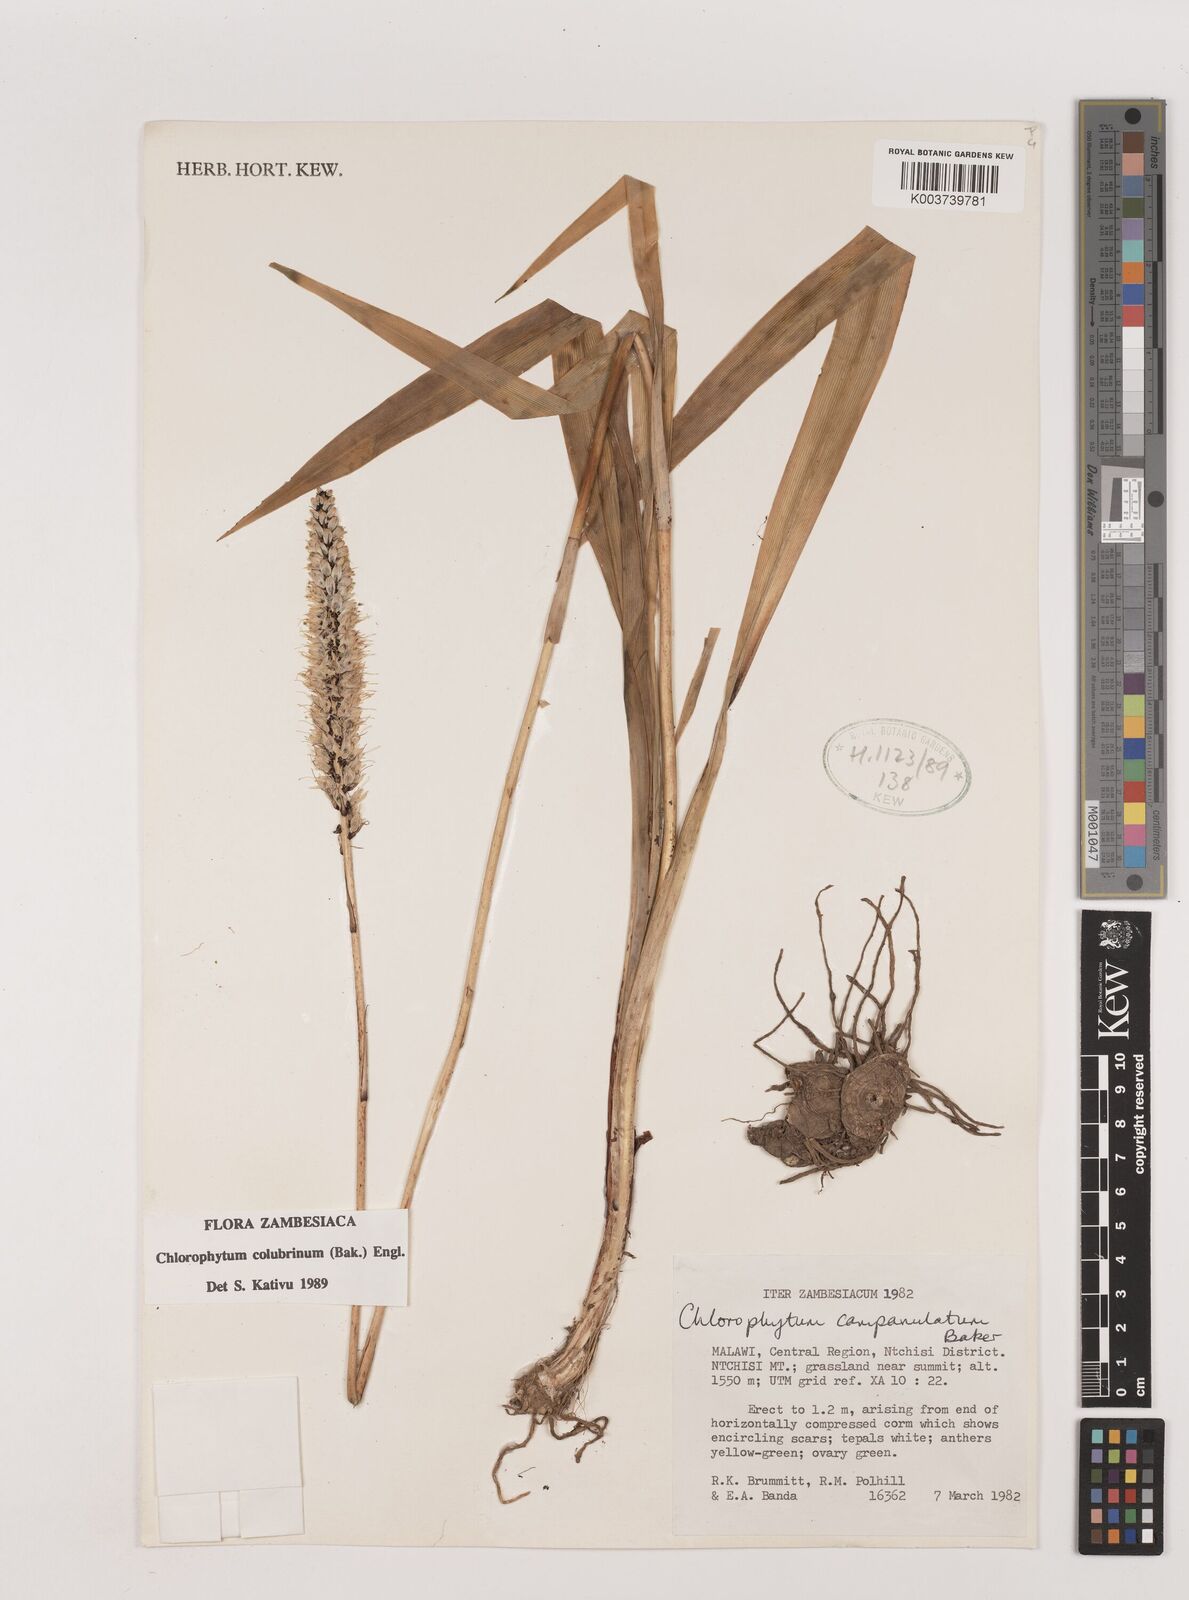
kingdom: Plantae
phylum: Tracheophyta
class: Liliopsida
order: Asparagales
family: Asparagaceae
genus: Chlorophytum
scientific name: Chlorophytum colubrinum
